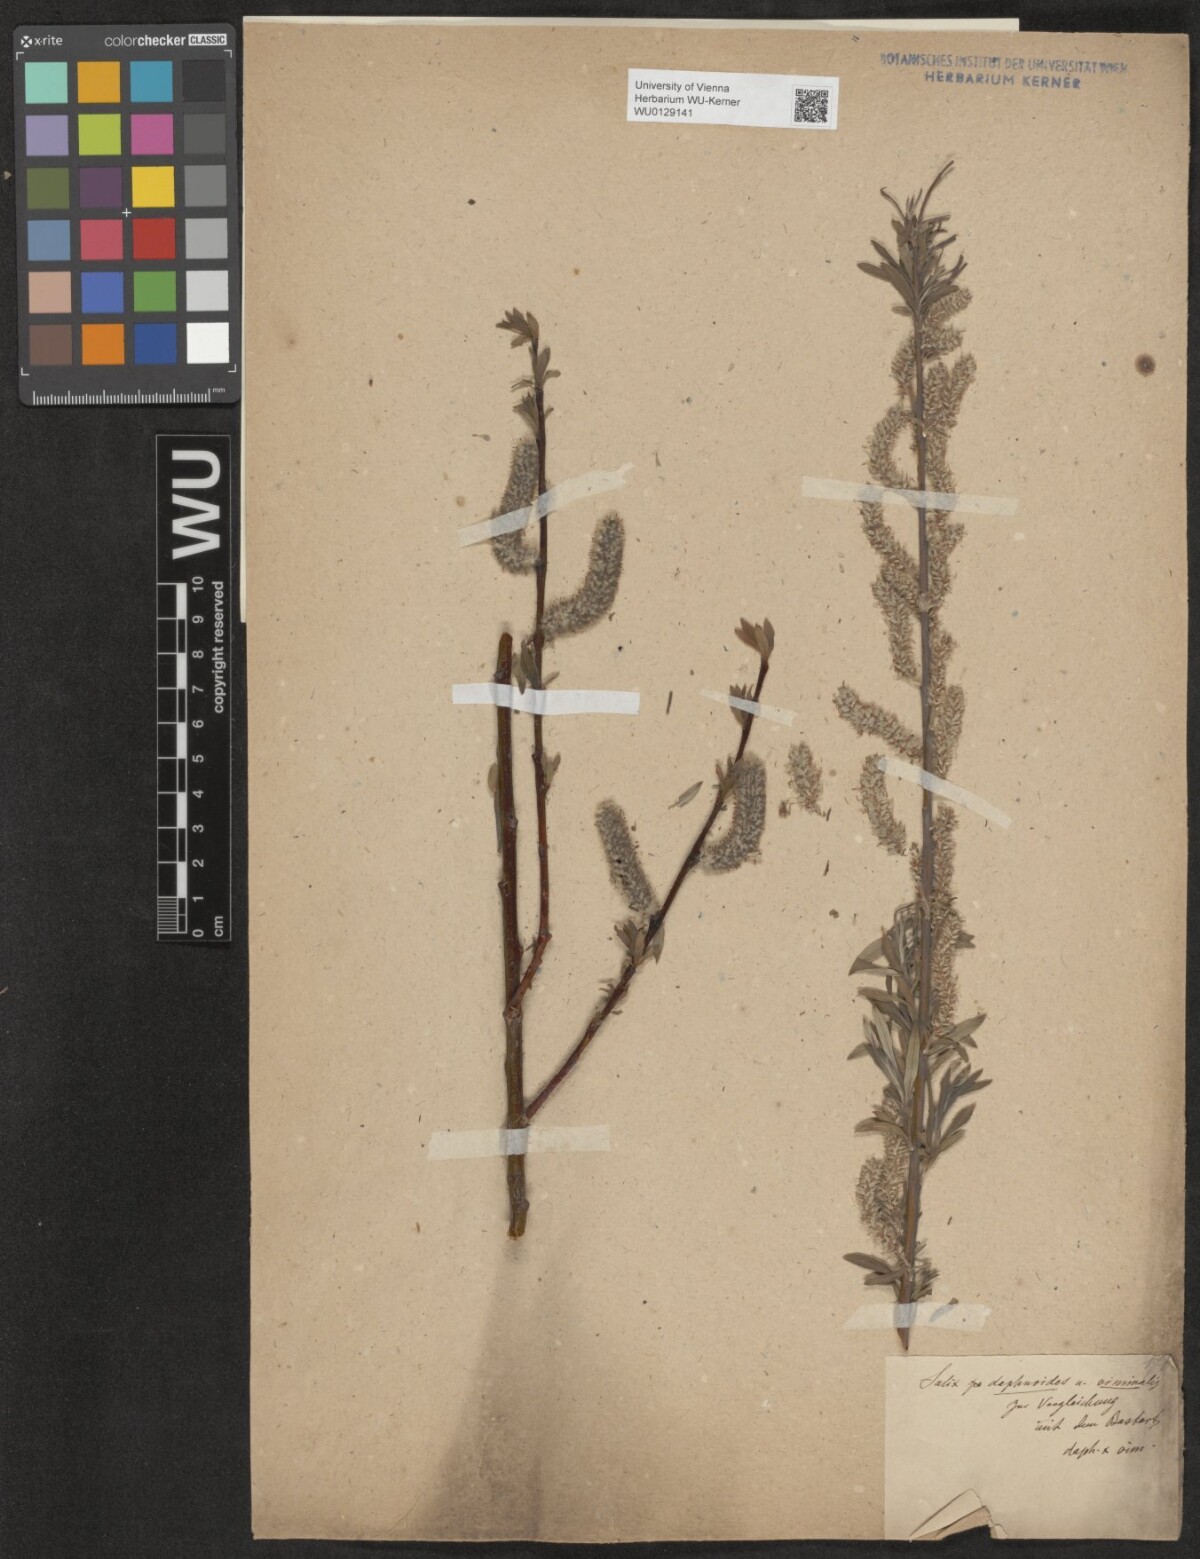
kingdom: Plantae
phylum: Tracheophyta
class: Magnoliopsida
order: Malpighiales
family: Salicaceae
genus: Salix
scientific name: Salix digenea
